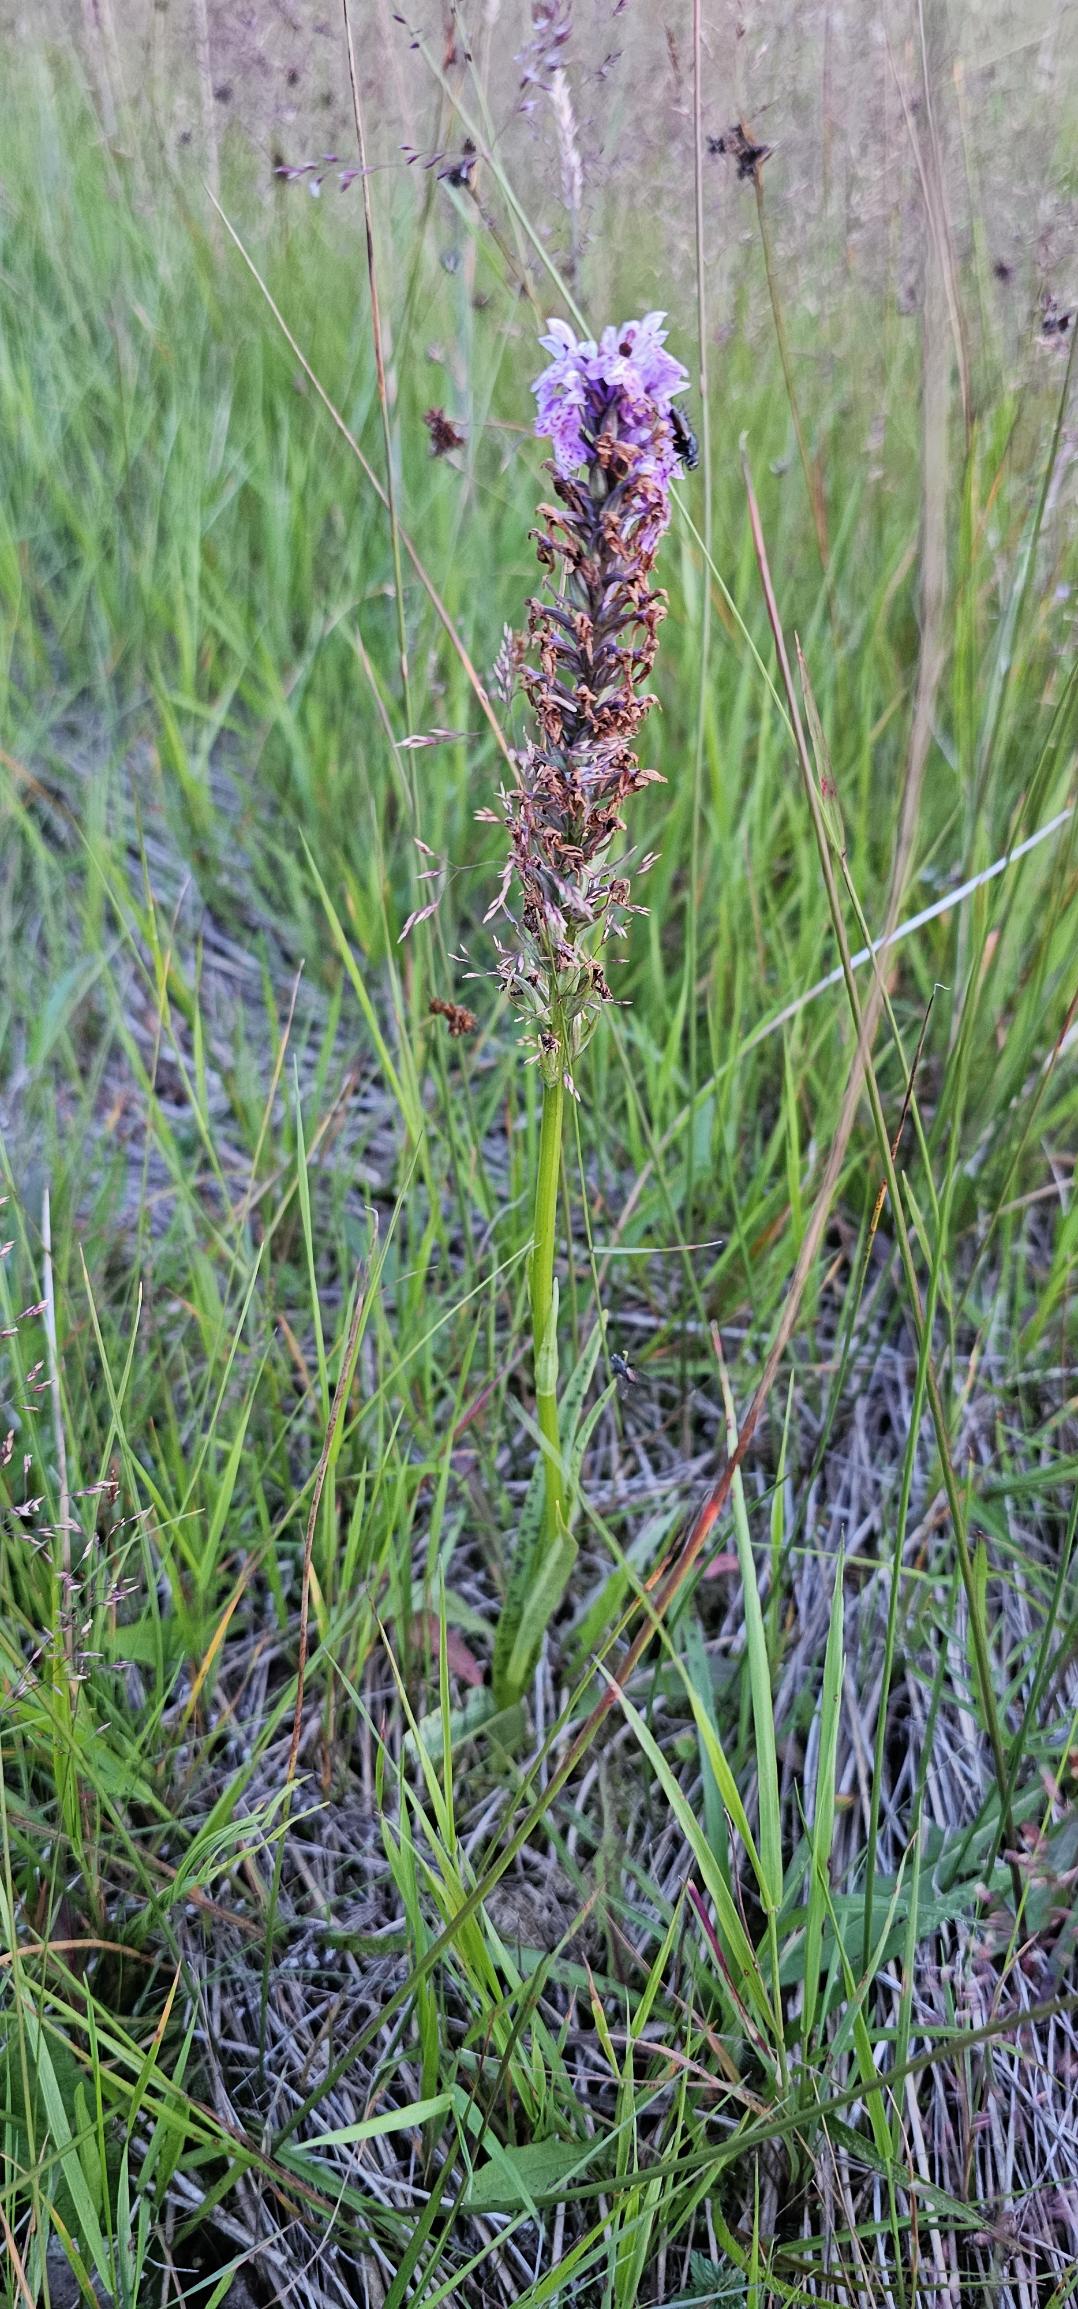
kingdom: Plantae
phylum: Tracheophyta
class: Liliopsida
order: Asparagales
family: Orchidaceae
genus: Dactylorhiza
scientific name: Dactylorhiza maculata
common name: Plettet gøgeurt (underart)
